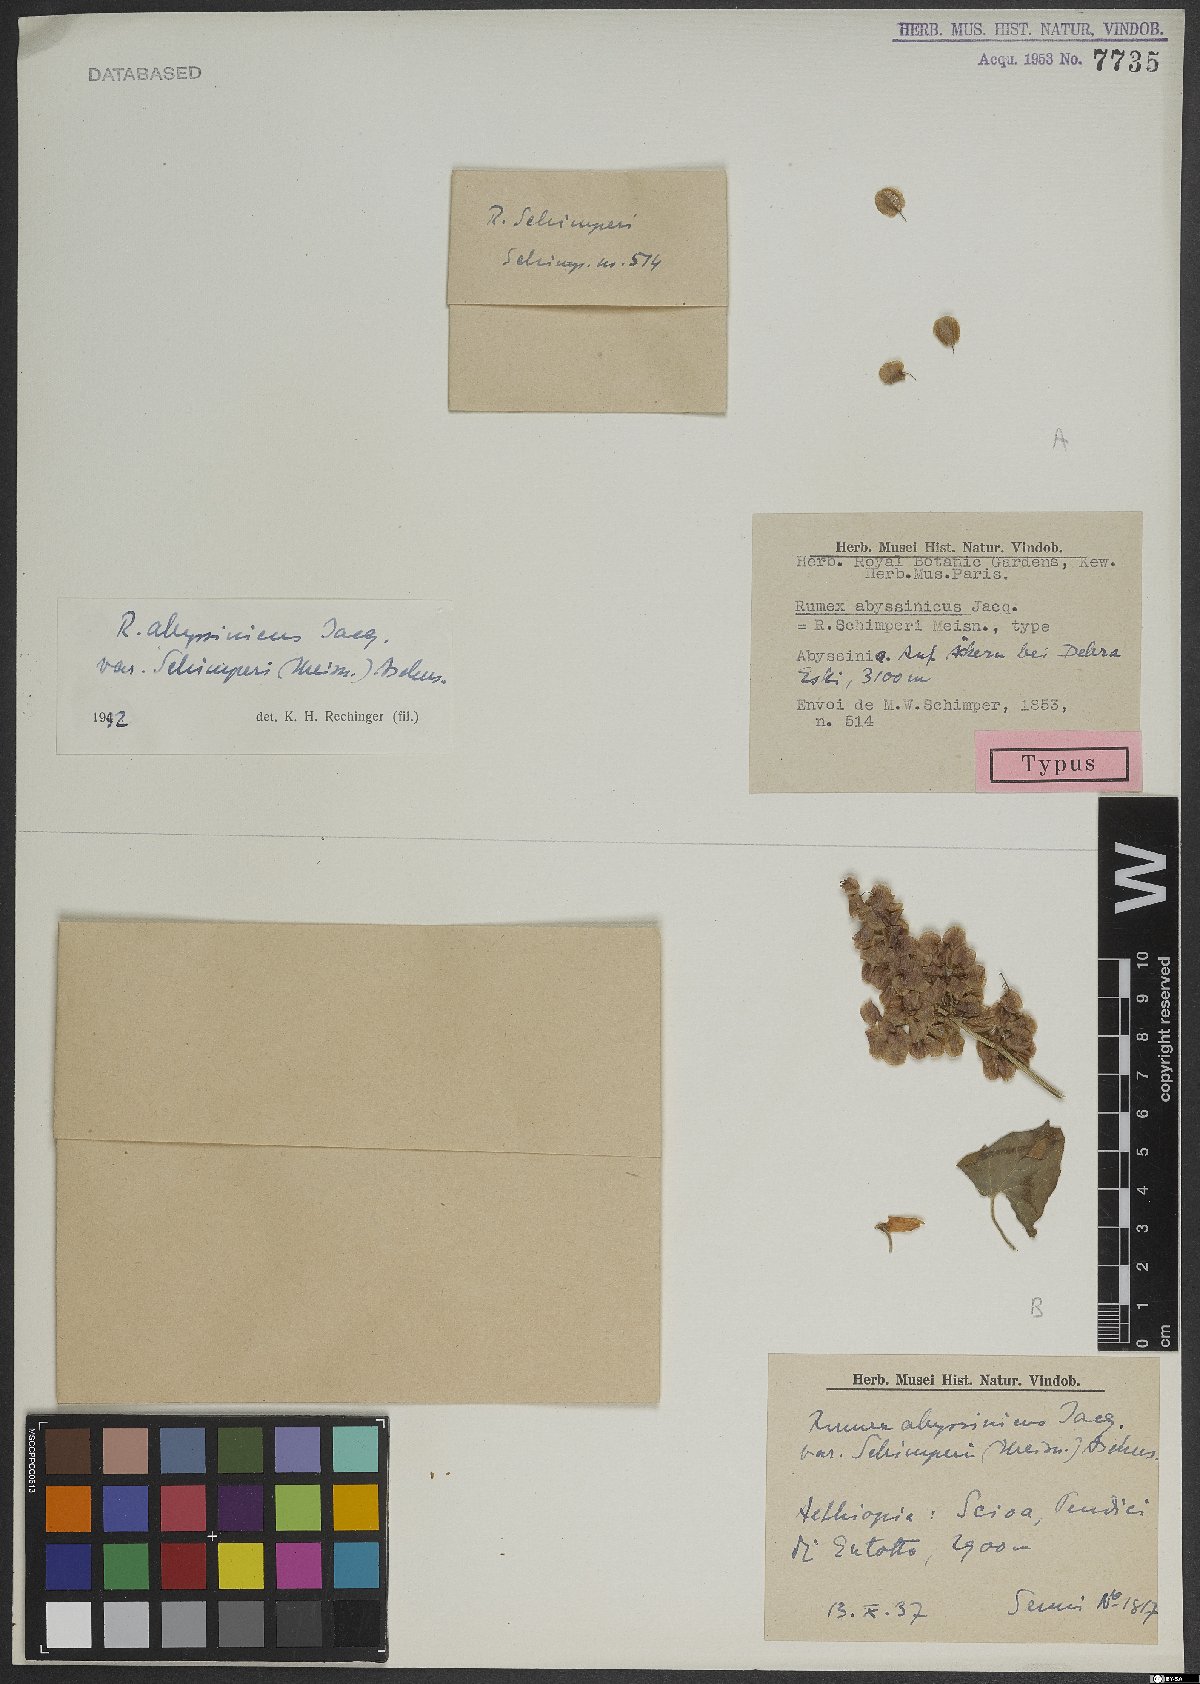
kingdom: Plantae
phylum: Tracheophyta
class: Magnoliopsida
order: Caryophyllales
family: Polygonaceae
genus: Rumex
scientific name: Rumex abyssinicus
